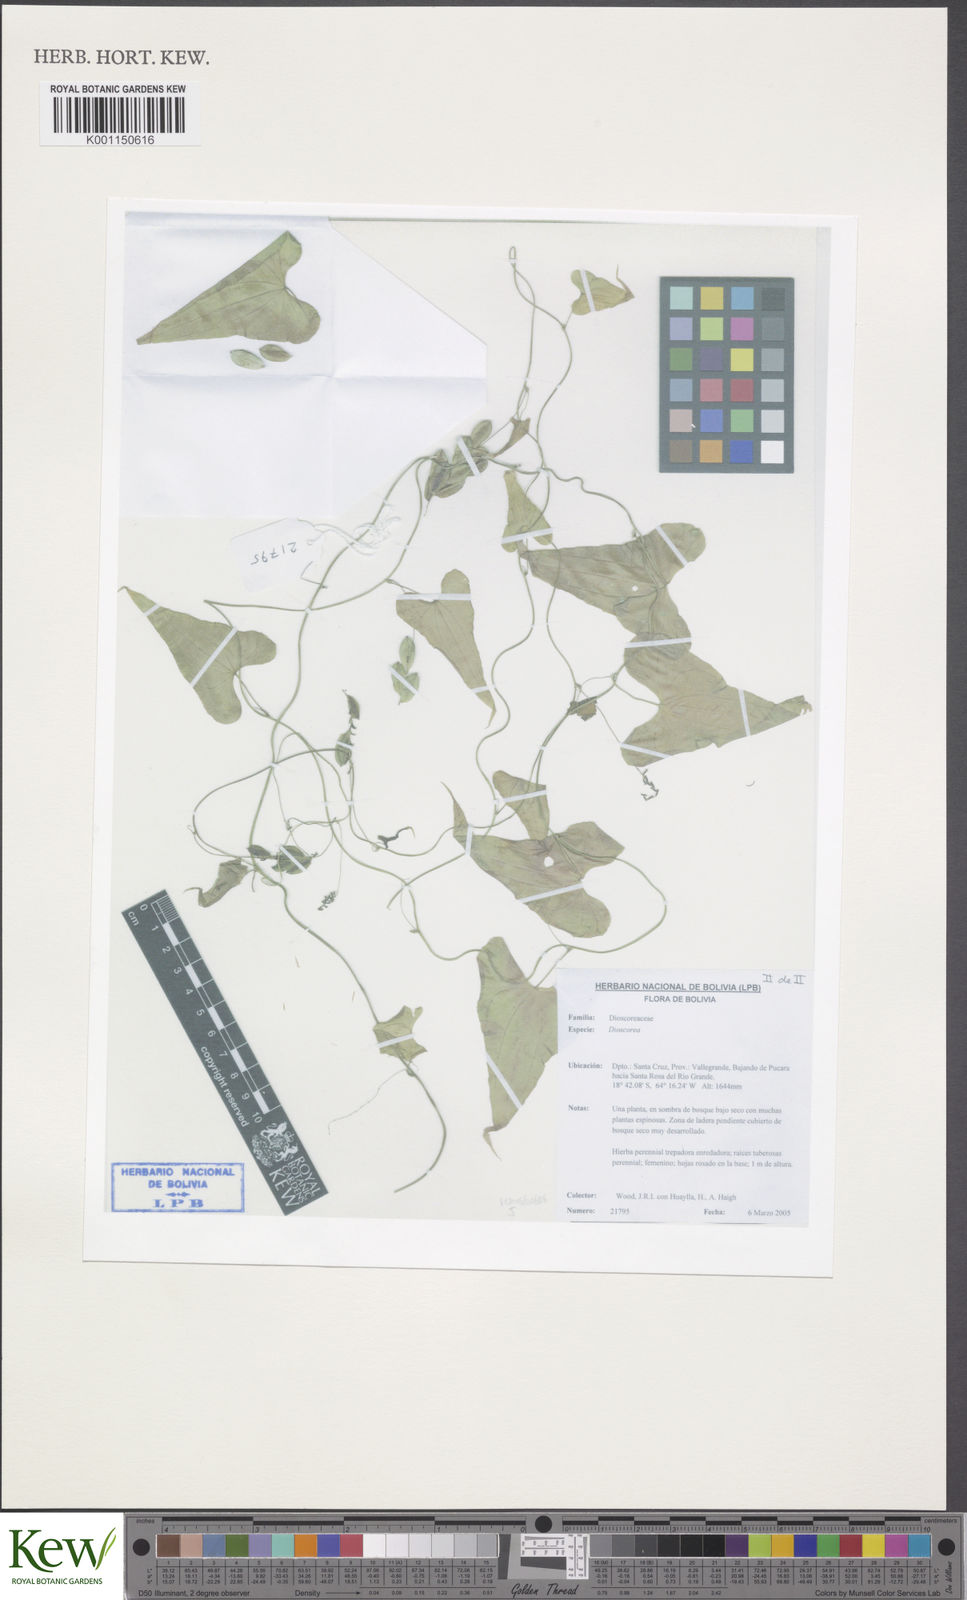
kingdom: Plantae
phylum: Tracheophyta
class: Liliopsida
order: Dioscoreales
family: Dioscoreaceae
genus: Dioscorea
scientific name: Dioscorea
